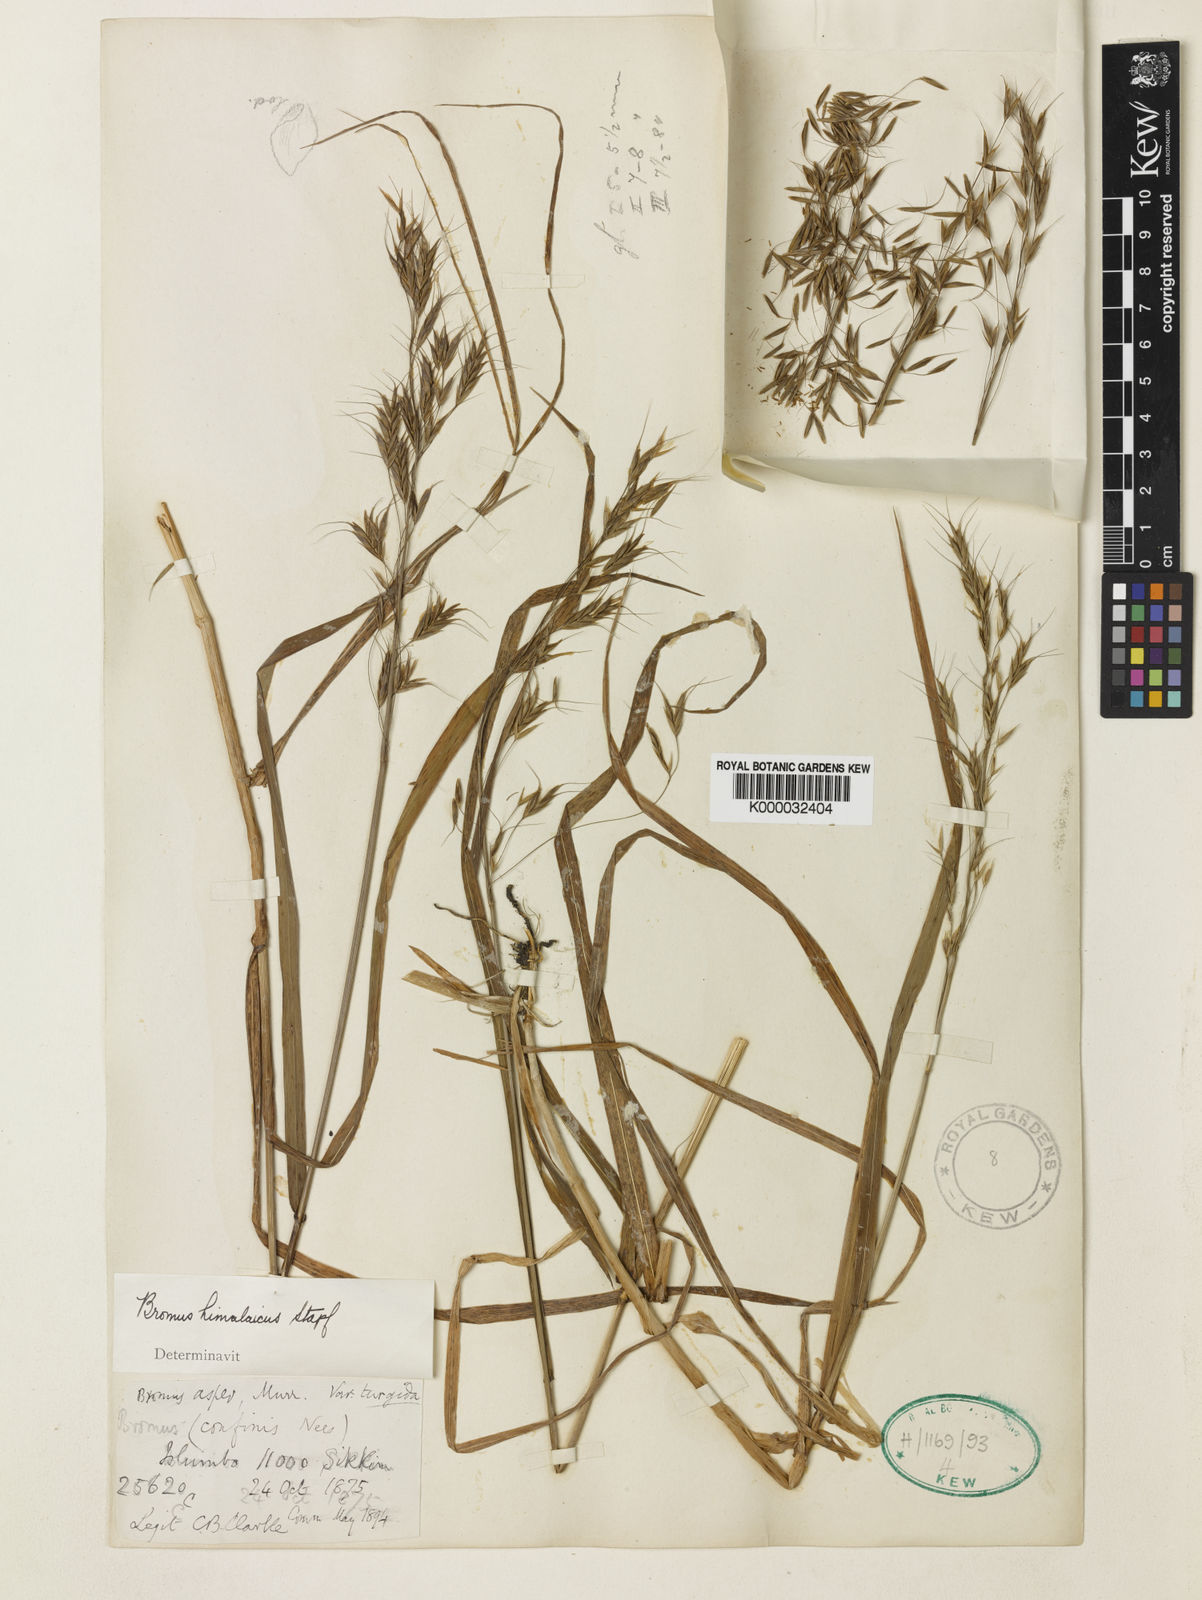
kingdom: Plantae
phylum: Tracheophyta
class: Liliopsida
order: Poales
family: Poaceae
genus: Bromus
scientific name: Bromus himalaicus
